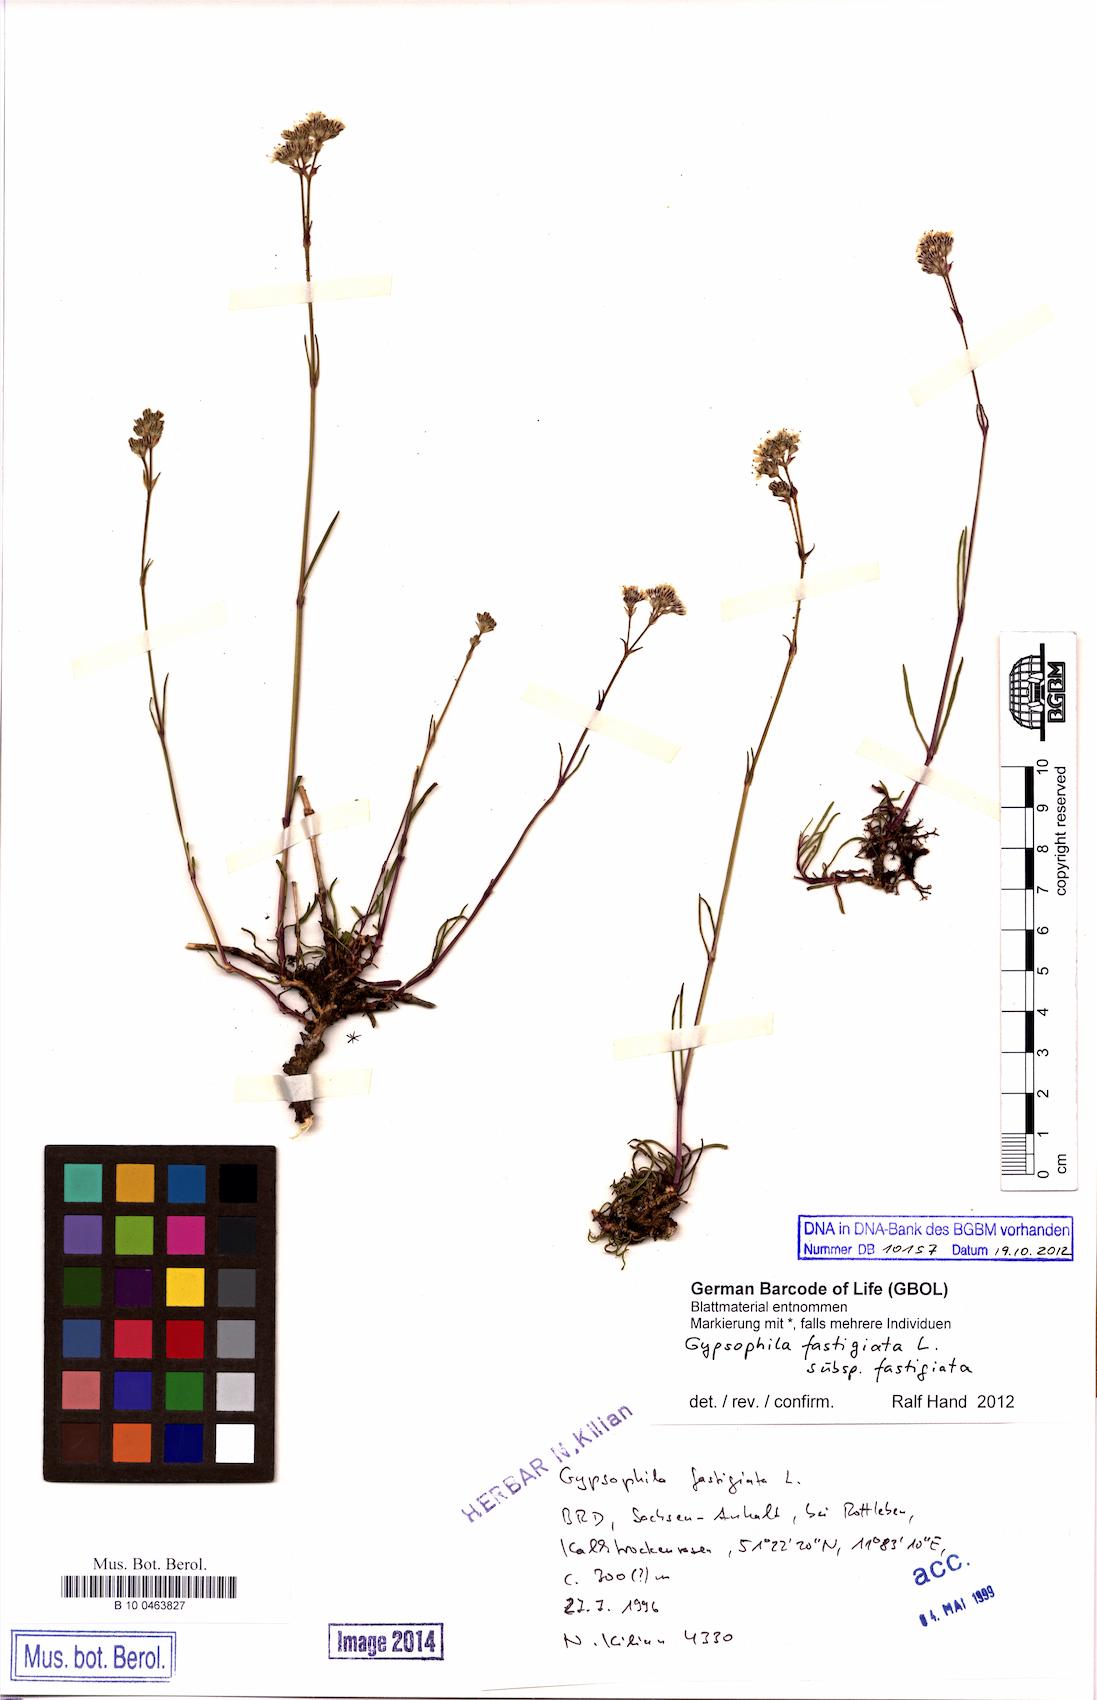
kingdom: Plantae
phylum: Tracheophyta
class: Magnoliopsida
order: Caryophyllales
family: Caryophyllaceae
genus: Gypsophila
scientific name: Gypsophila fastigiata
